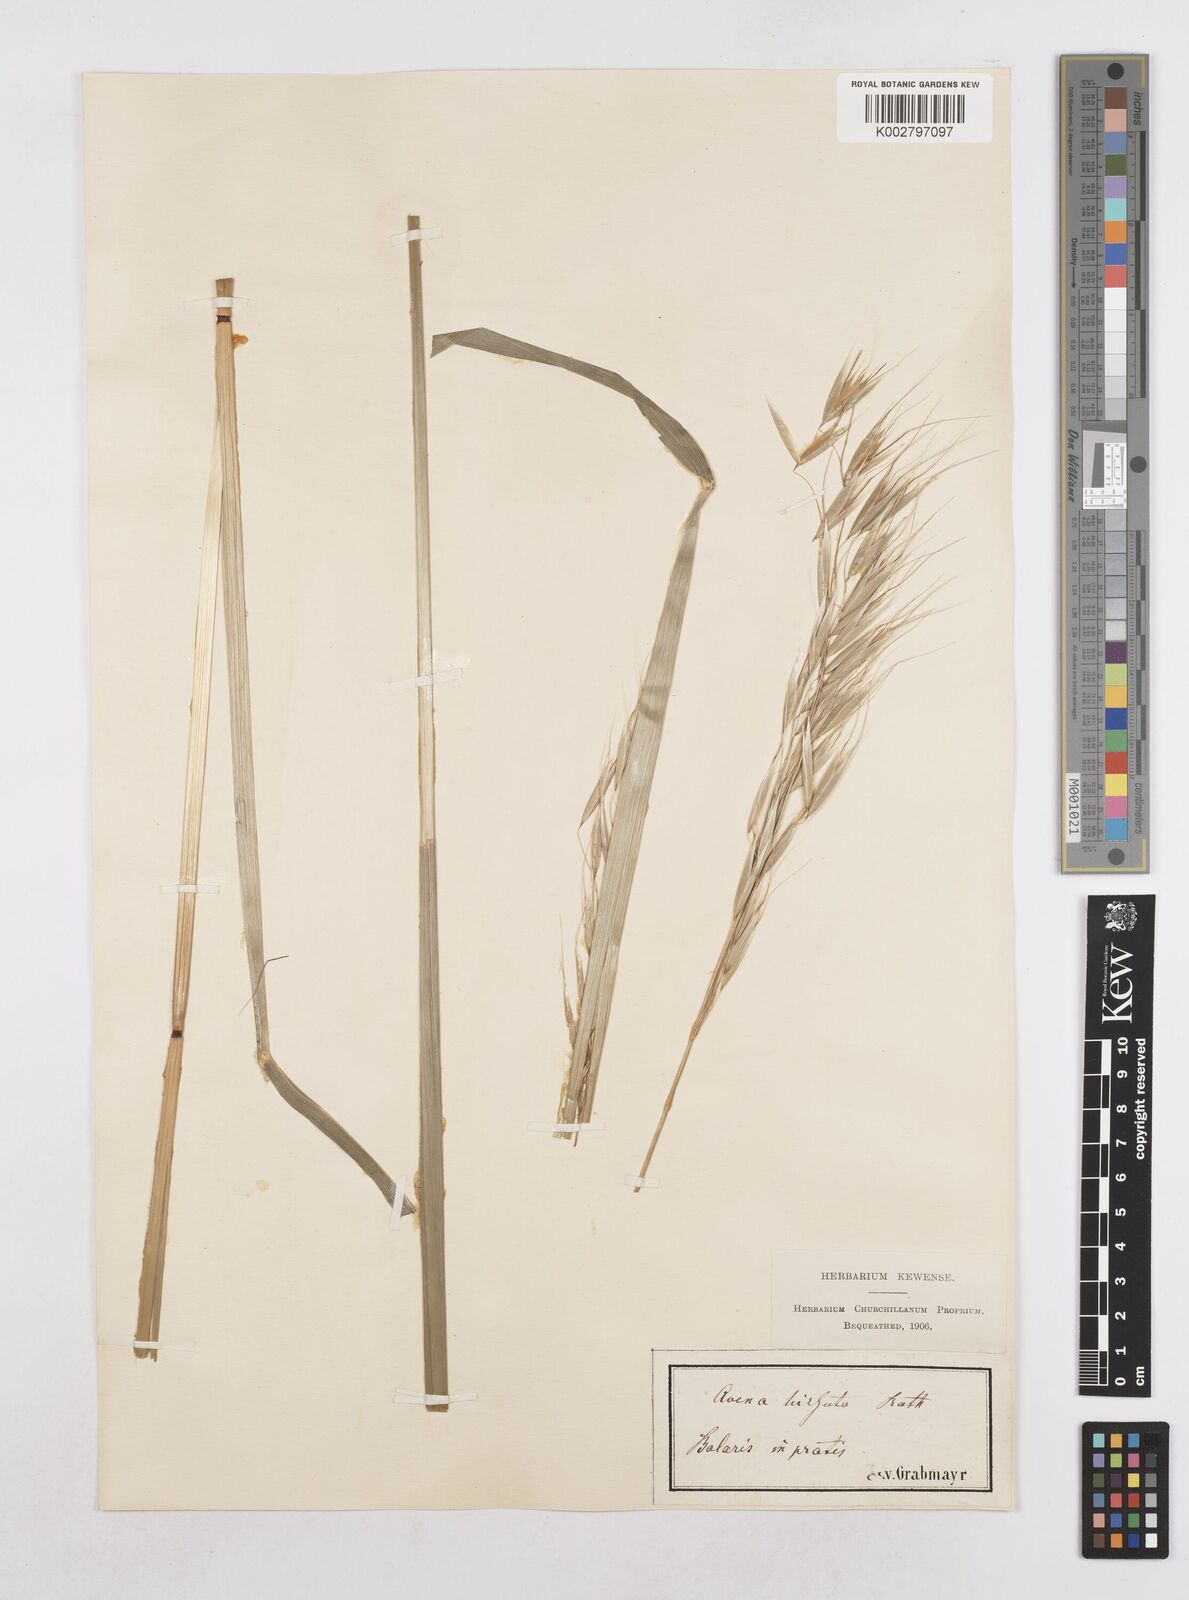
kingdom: Plantae
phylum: Tracheophyta
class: Liliopsida
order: Poales
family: Poaceae
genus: Avena
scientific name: Avena
